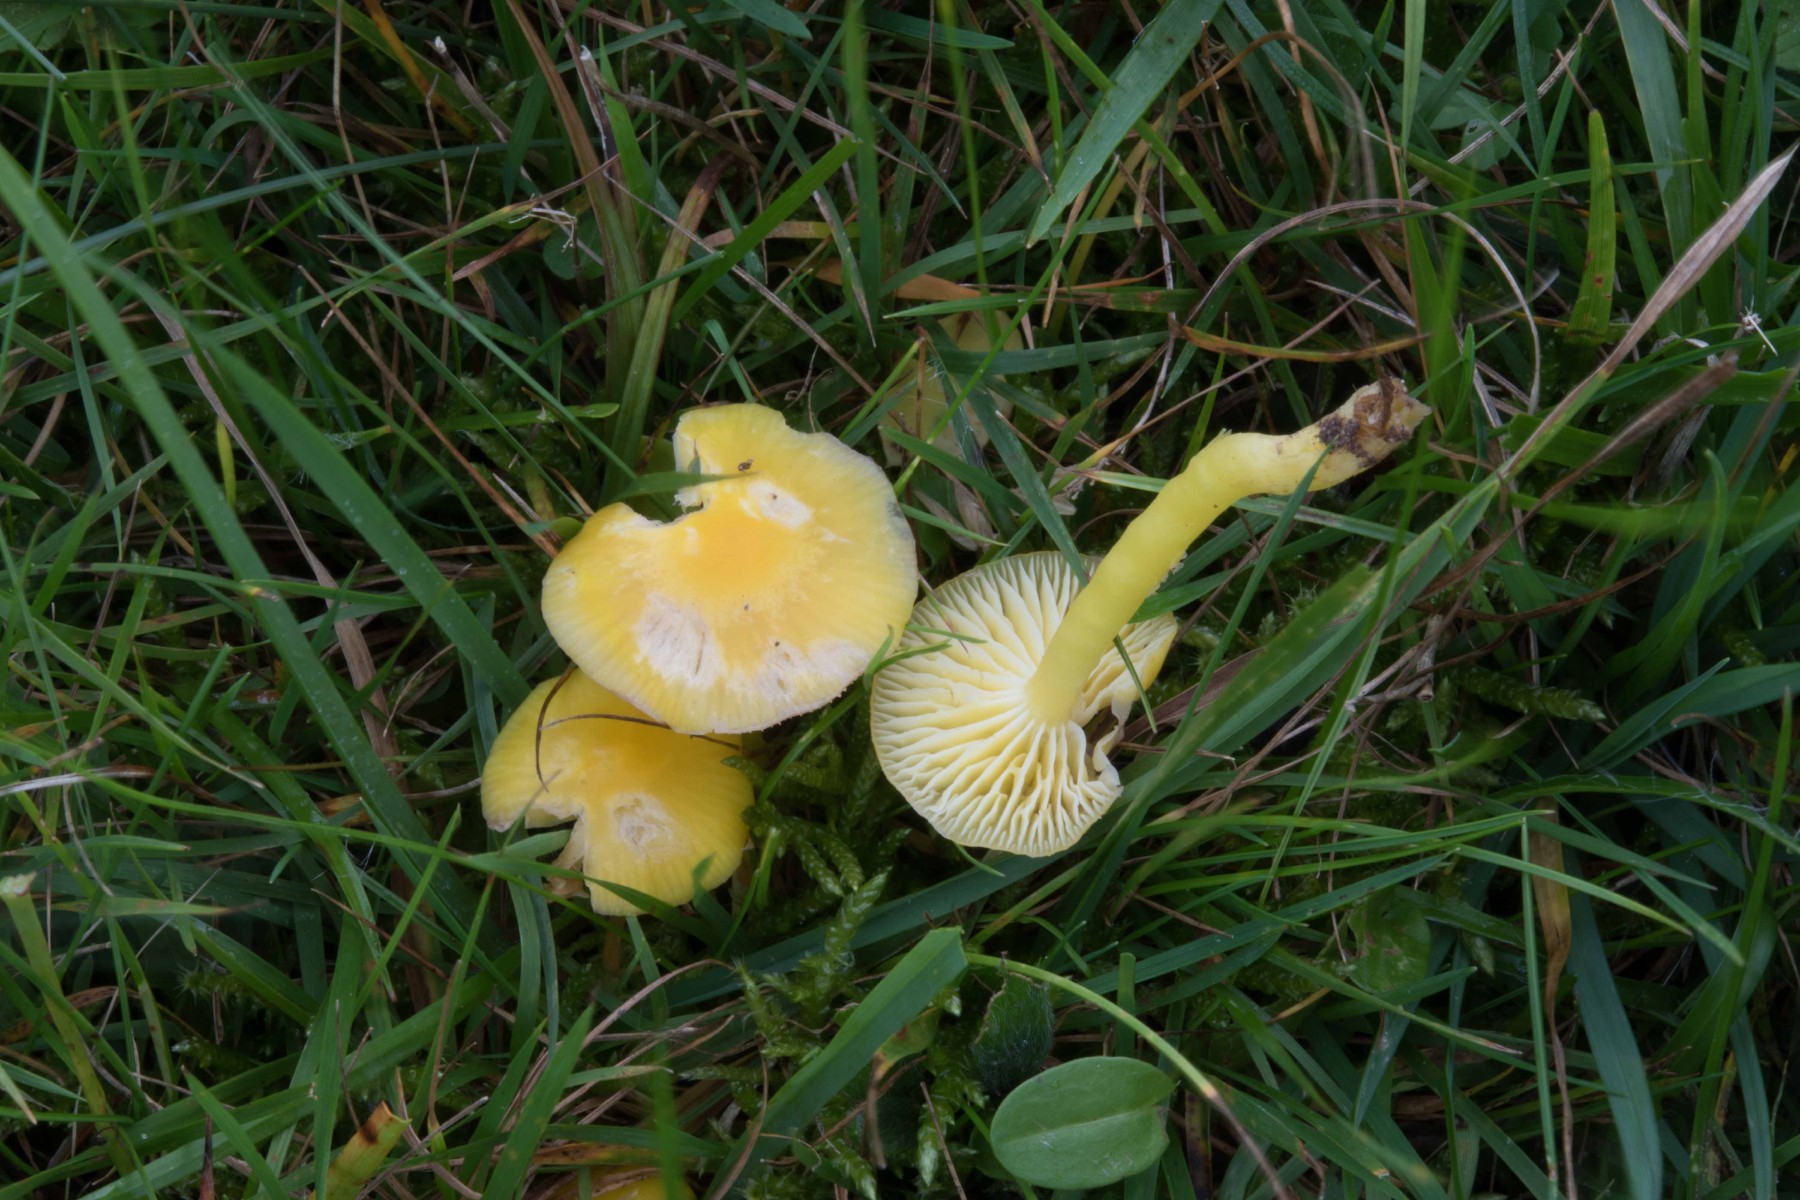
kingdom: Fungi
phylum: Basidiomycota
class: Agaricomycetes
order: Agaricales
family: Hygrophoraceae
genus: Hygrocybe
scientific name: Hygrocybe chlorophana
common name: gul vokshat
